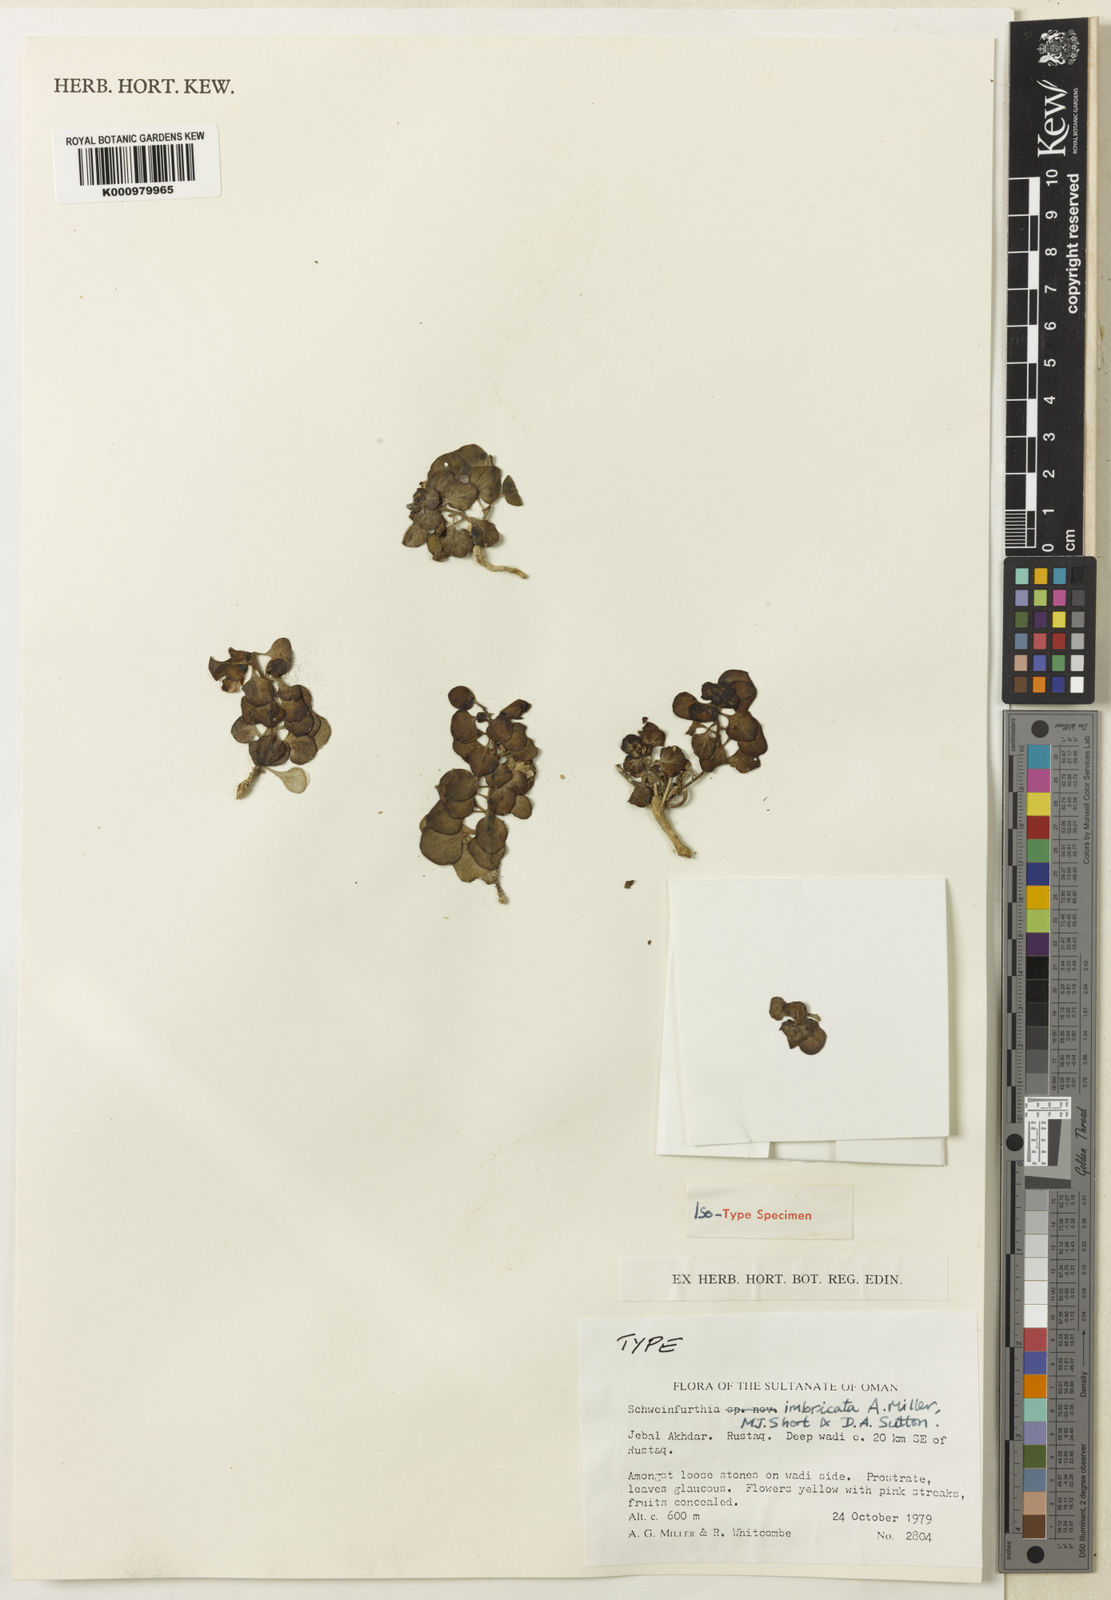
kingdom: Plantae
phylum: Tracheophyta
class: Magnoliopsida
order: Lamiales
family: Plantaginaceae
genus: Schweinfurthia
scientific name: Schweinfurthia
